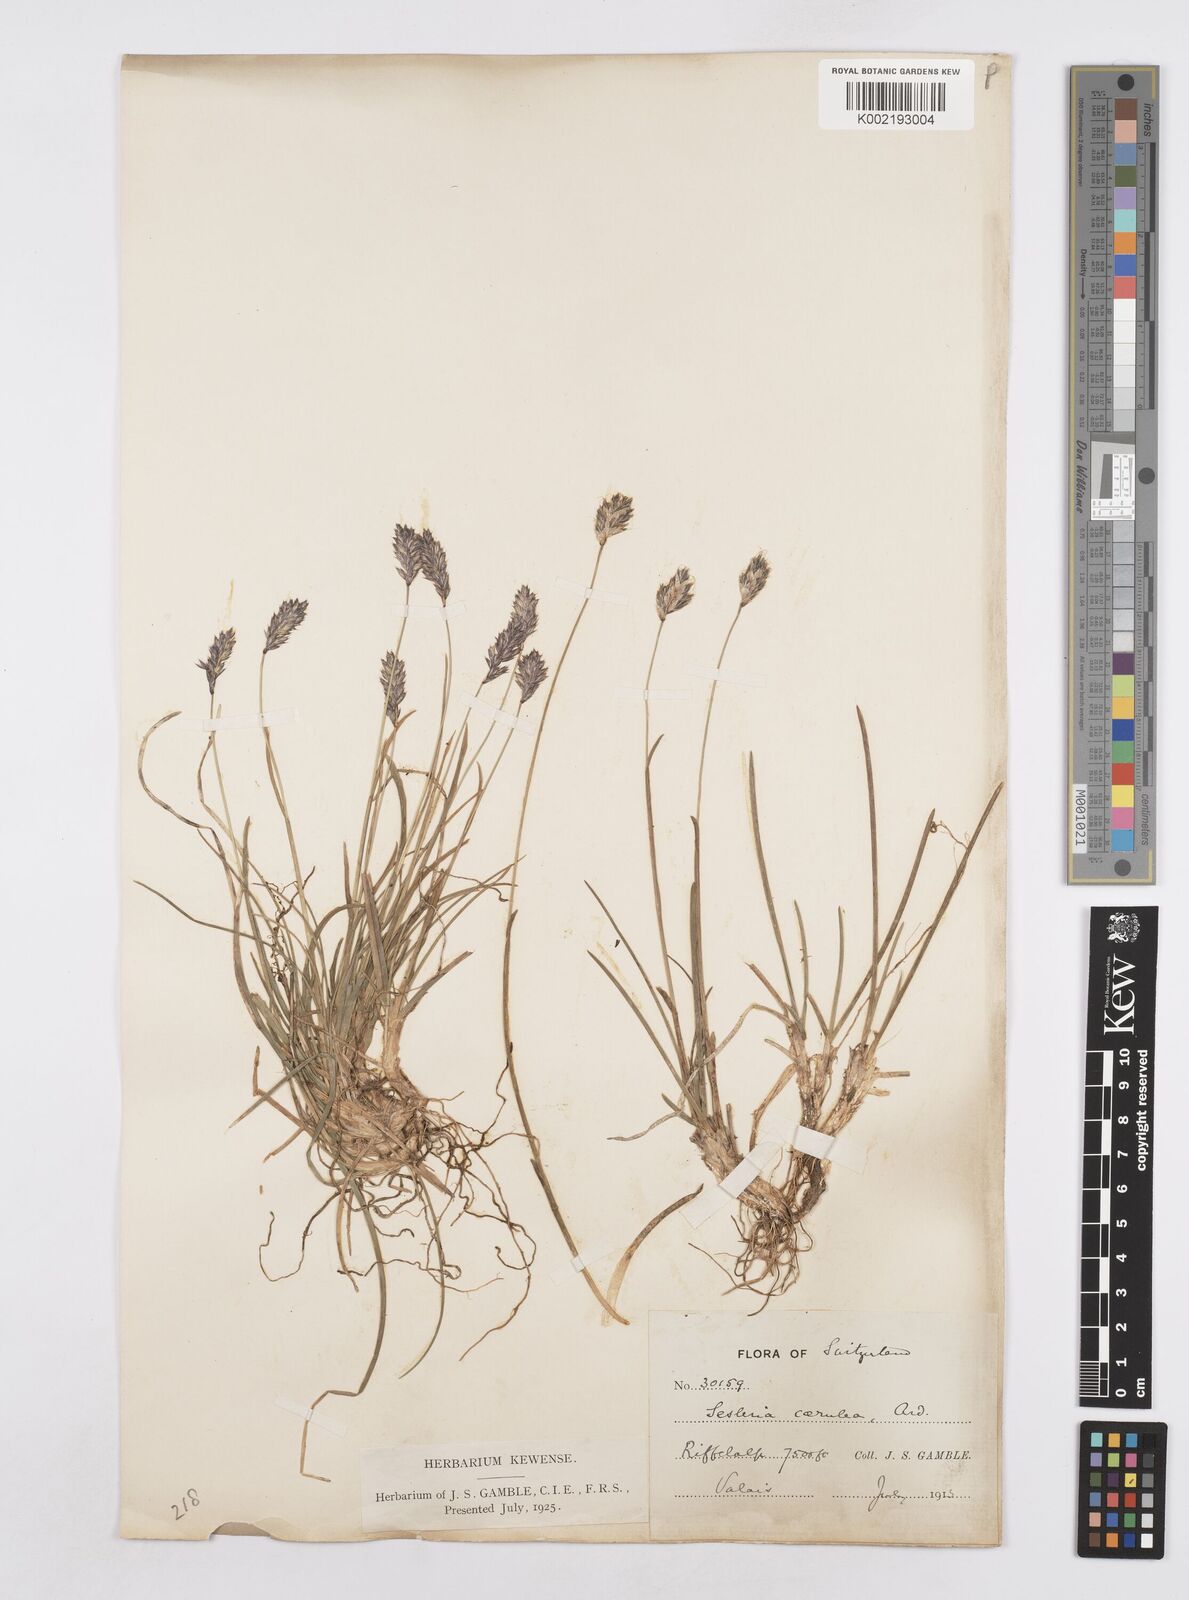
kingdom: Plantae
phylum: Tracheophyta
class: Liliopsida
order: Poales
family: Poaceae
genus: Sesleria
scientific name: Sesleria caerulea
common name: Blue moor-grass
